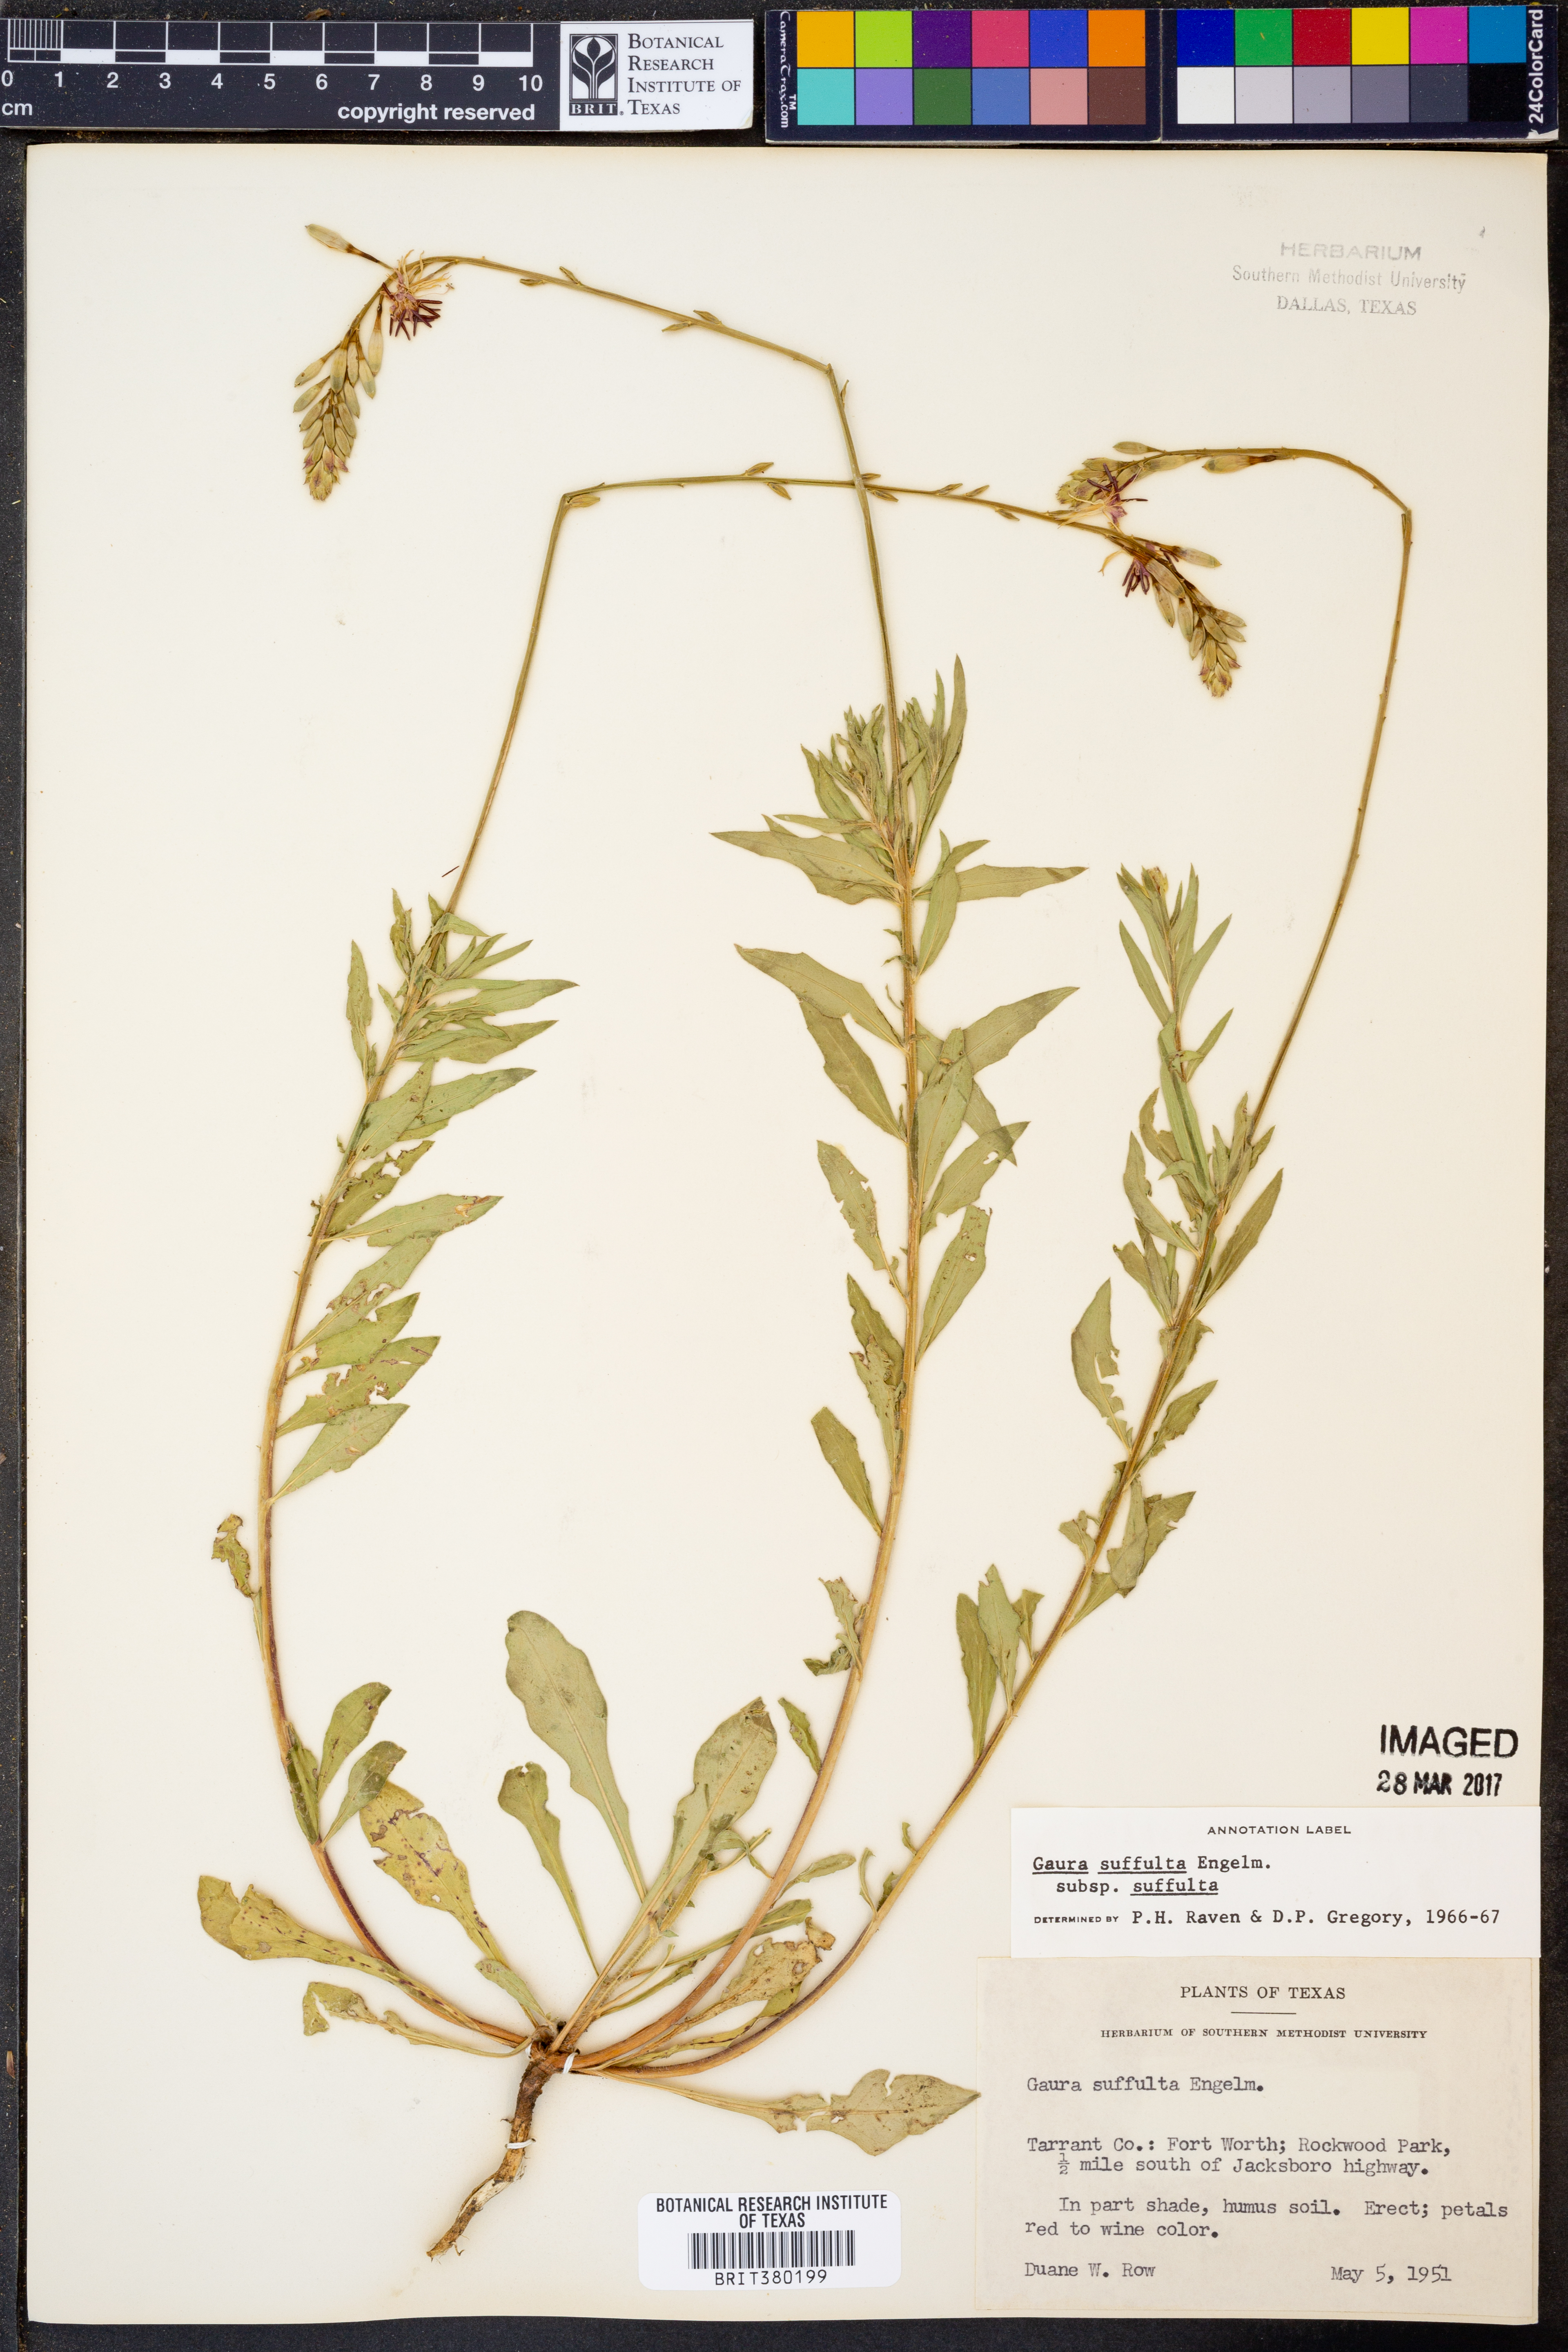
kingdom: Plantae
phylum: Tracheophyta
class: Magnoliopsida
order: Myrtales
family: Onagraceae
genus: Oenothera
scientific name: Oenothera suffulta
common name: Kisses
